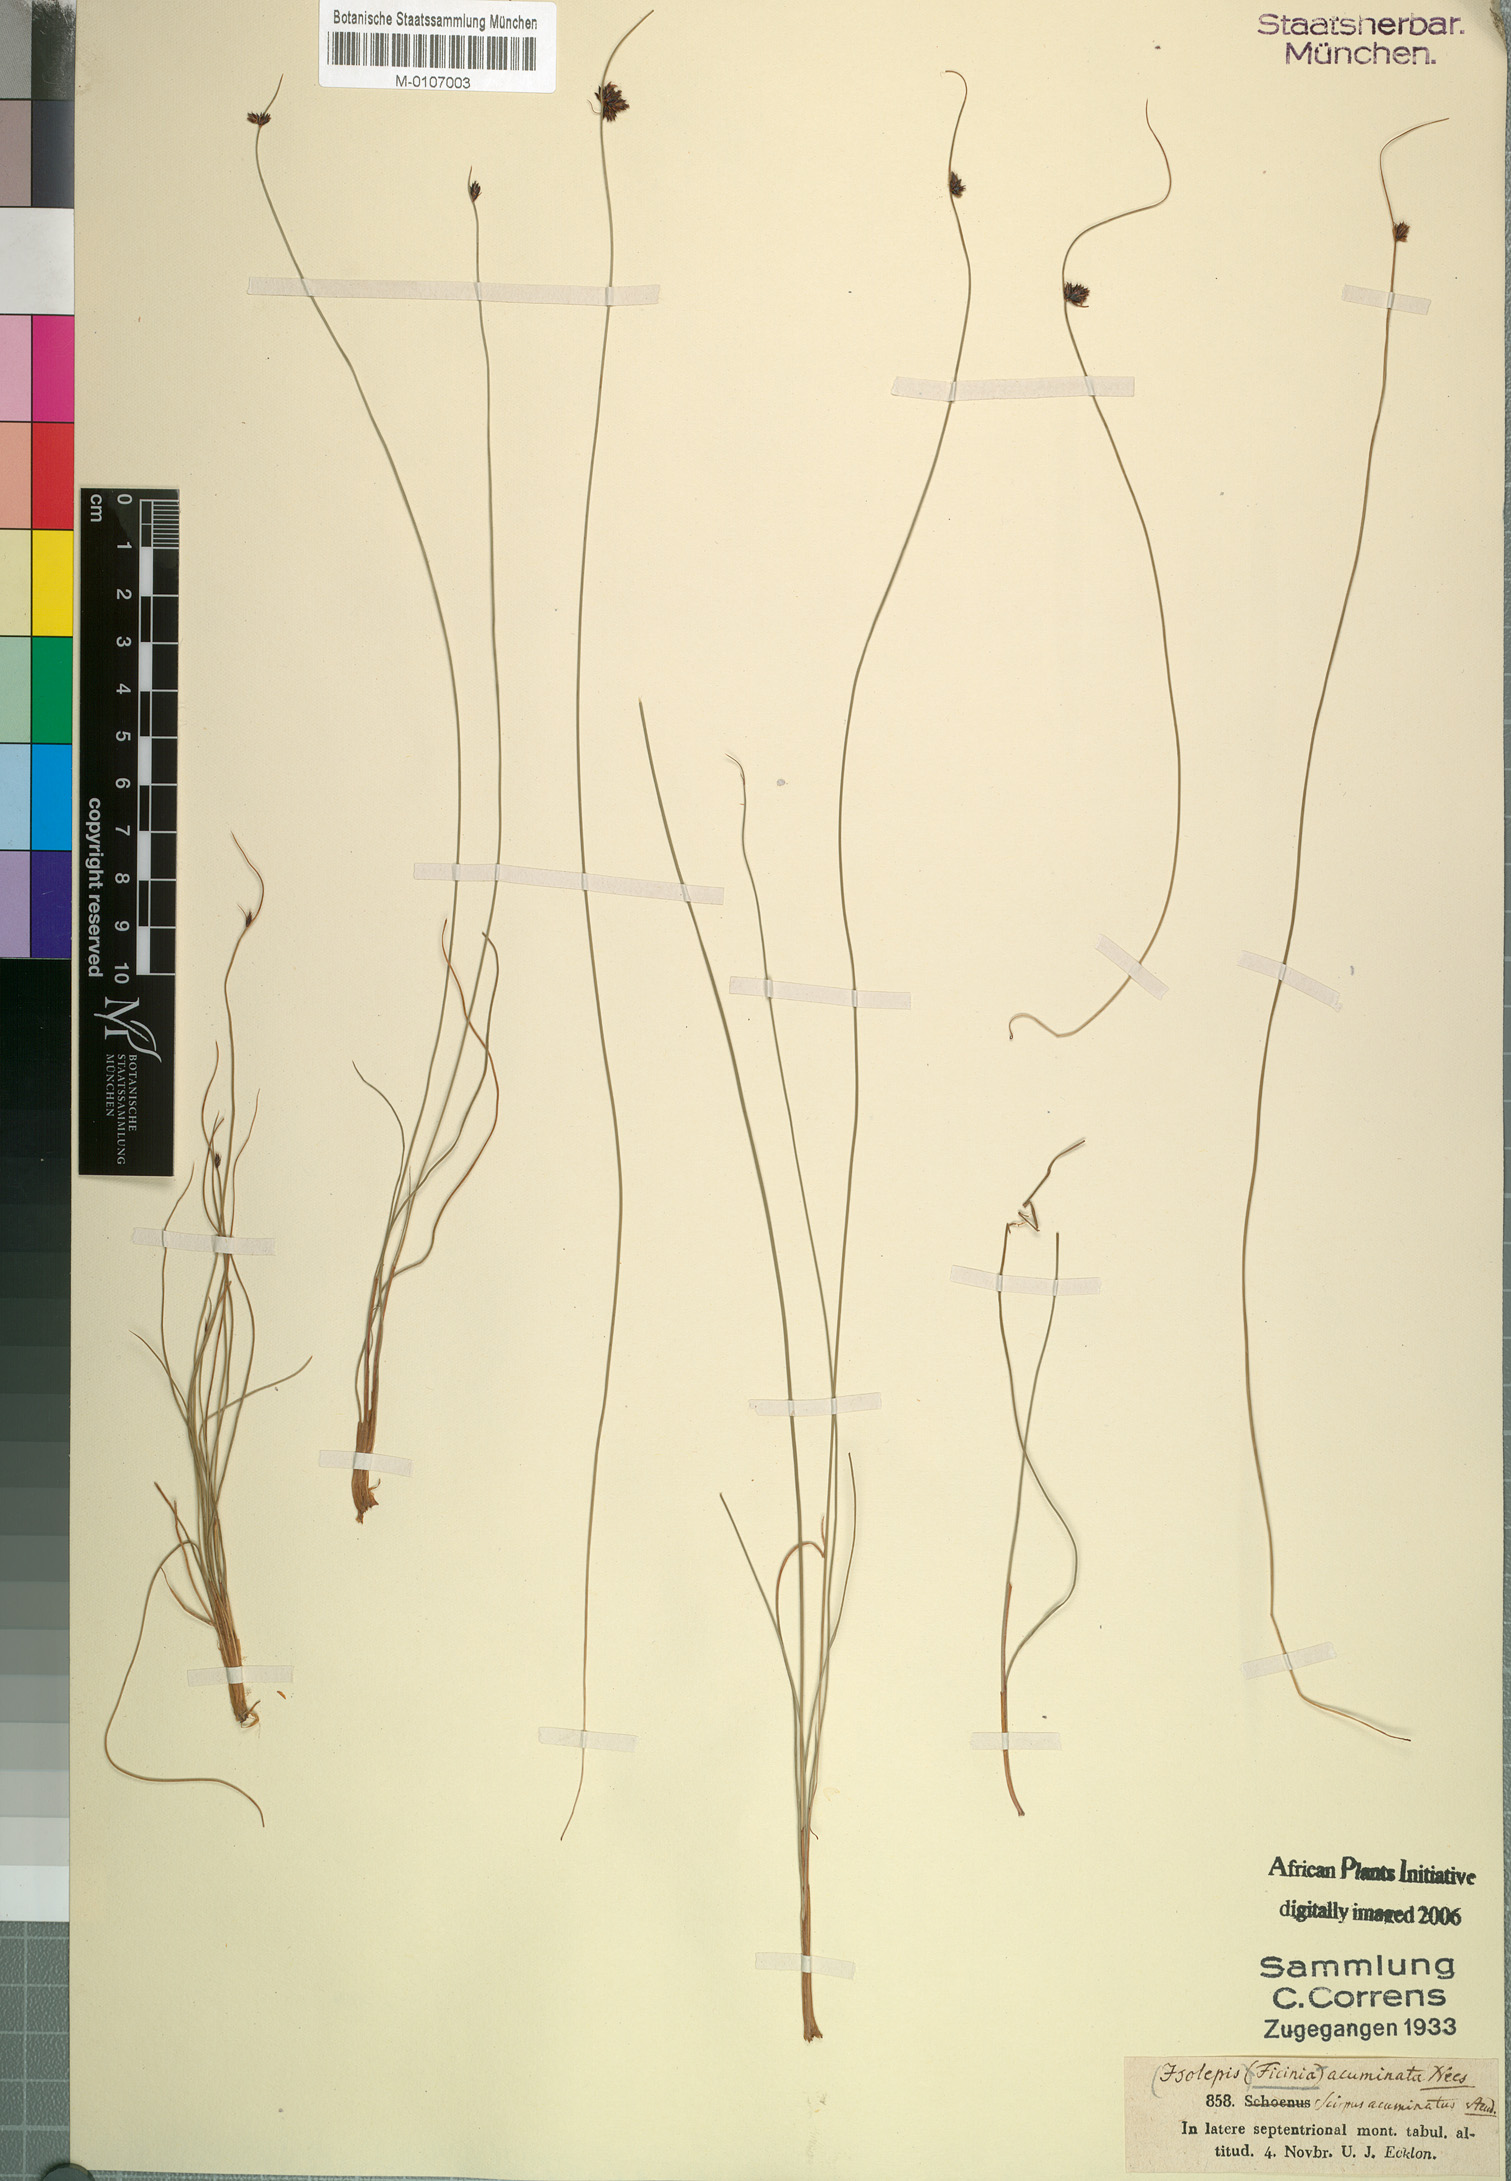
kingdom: Plantae
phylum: Tracheophyta
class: Liliopsida
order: Poales
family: Cyperaceae
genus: Ficinia
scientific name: Ficinia acuminata
